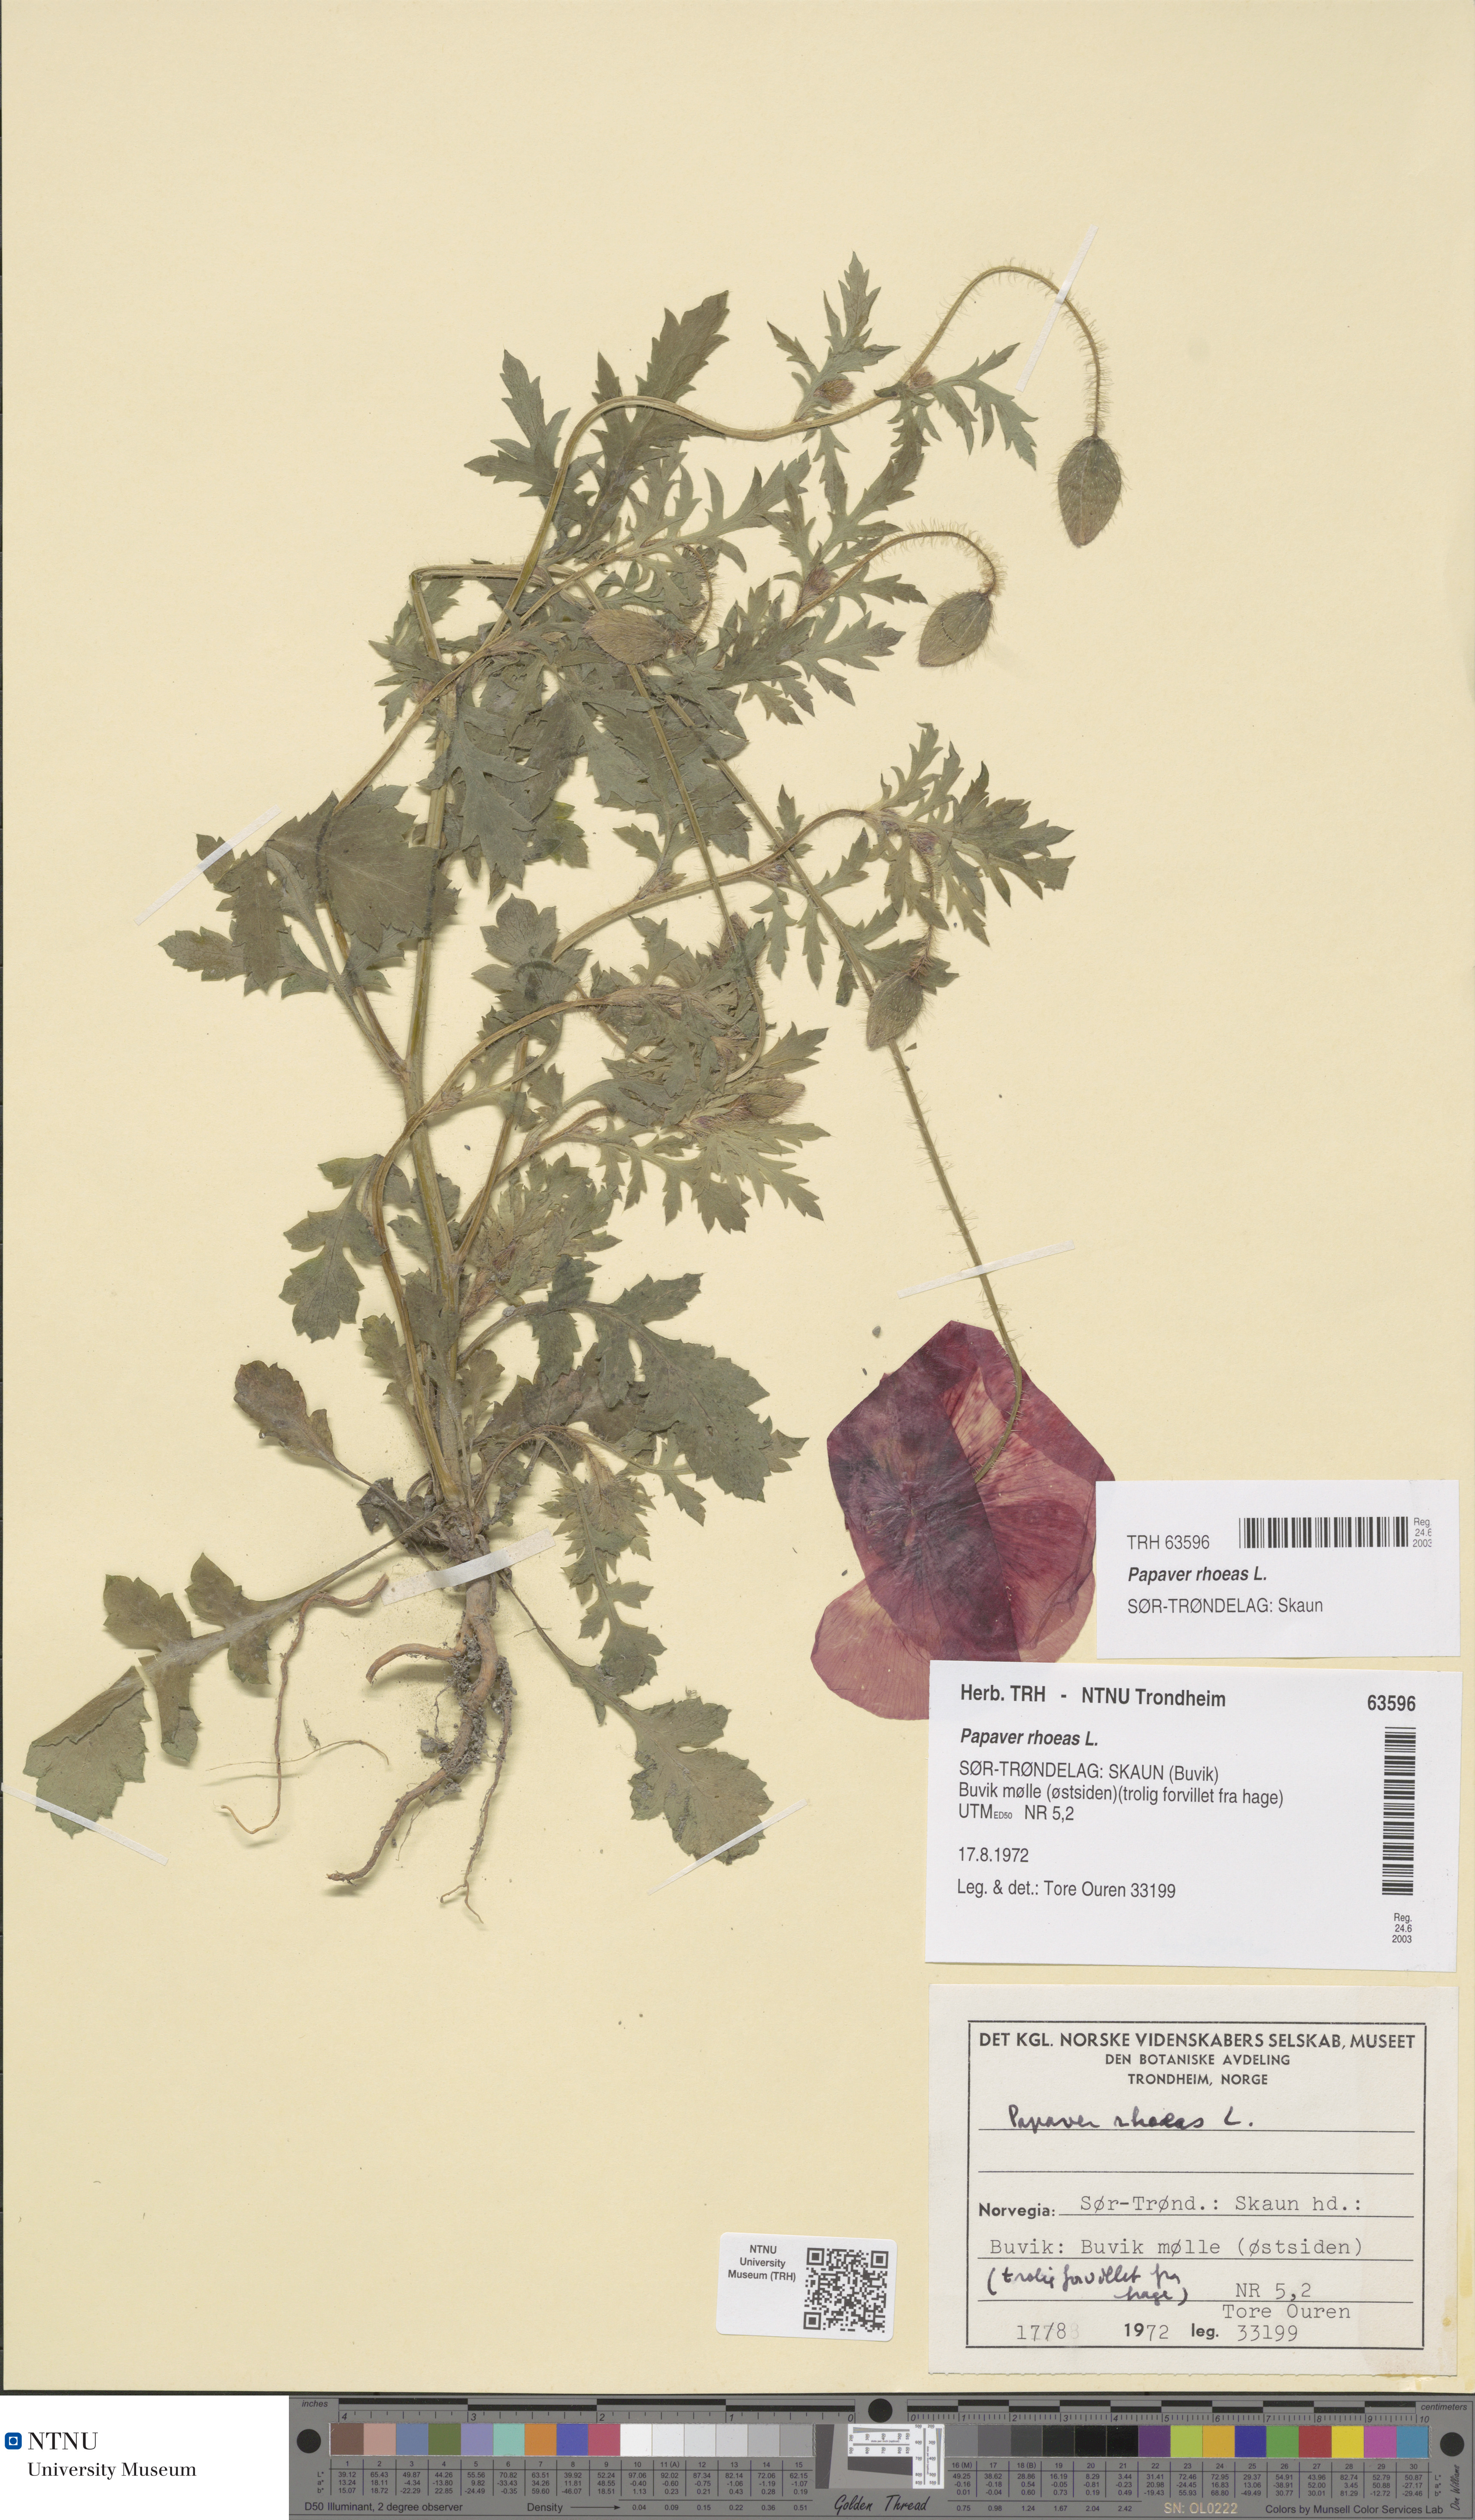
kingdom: Plantae
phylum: Tracheophyta
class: Magnoliopsida
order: Ranunculales
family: Papaveraceae
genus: Papaver
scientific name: Papaver rhoeas
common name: Corn poppy
